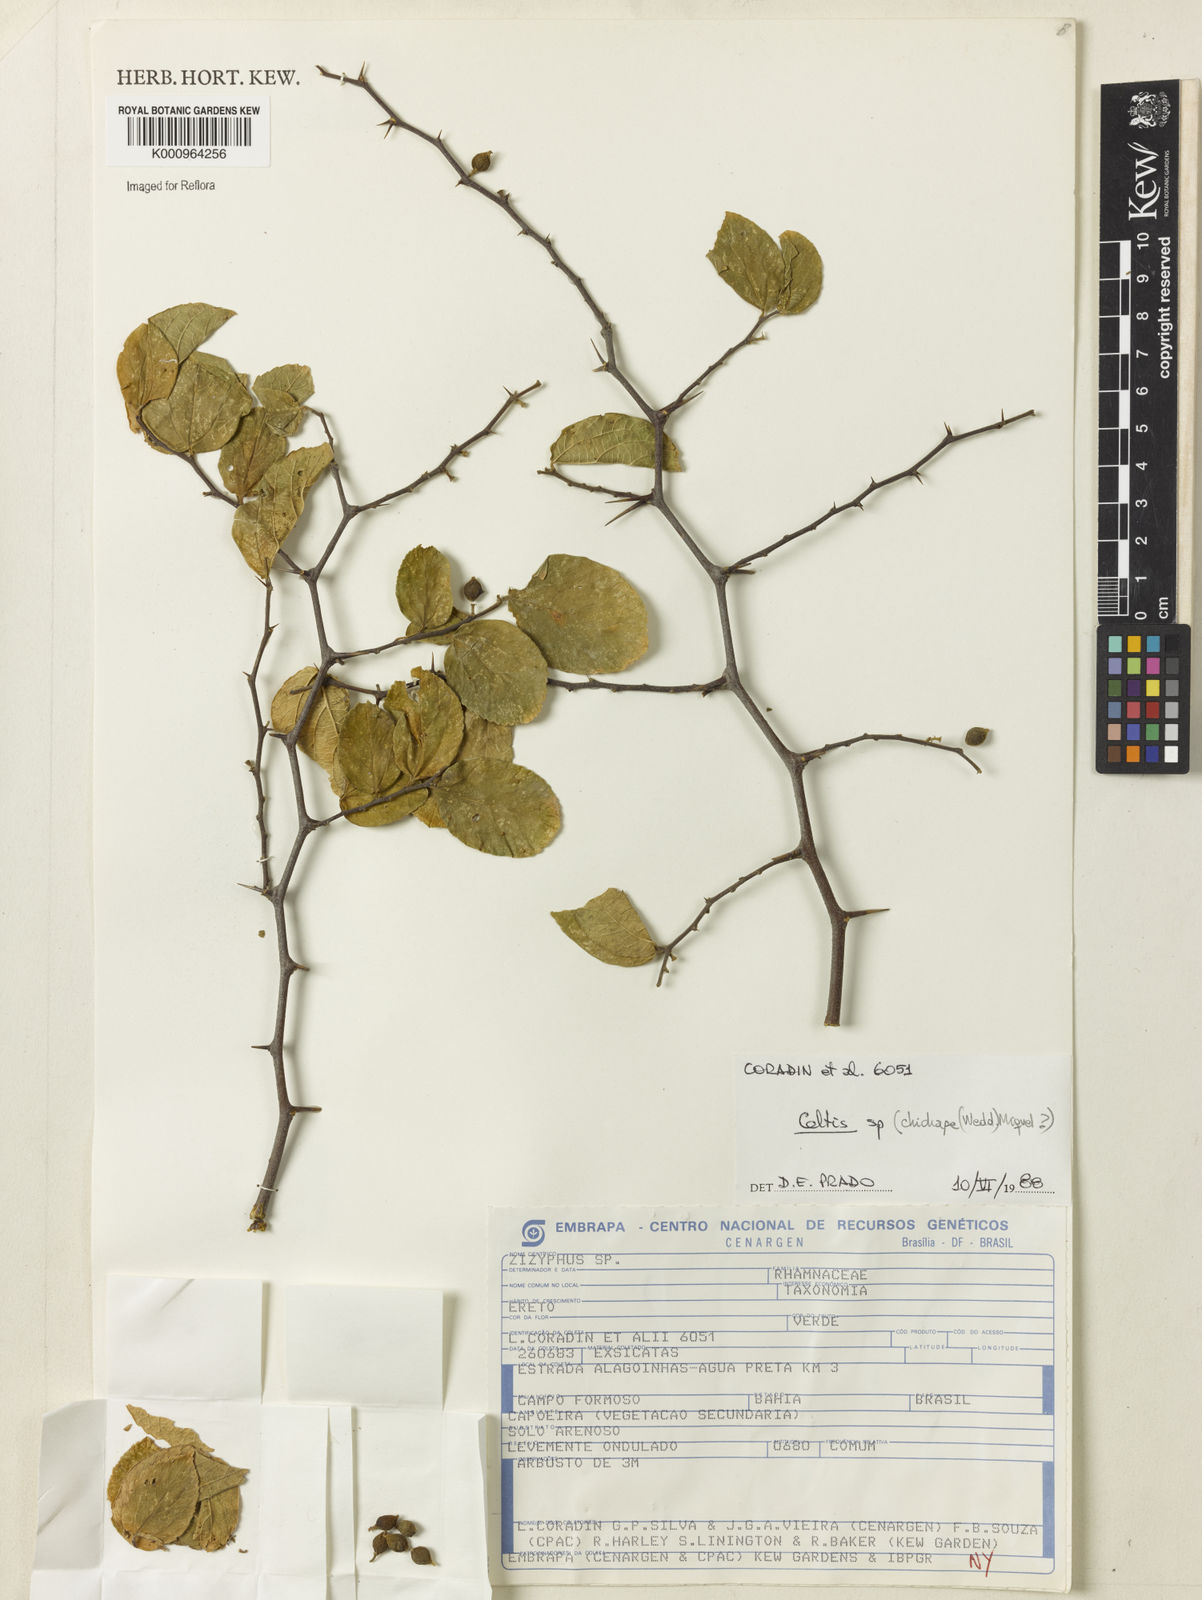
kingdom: Plantae
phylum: Tracheophyta
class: Magnoliopsida
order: Rosales
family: Cannabaceae
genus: Celtis
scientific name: Celtis
